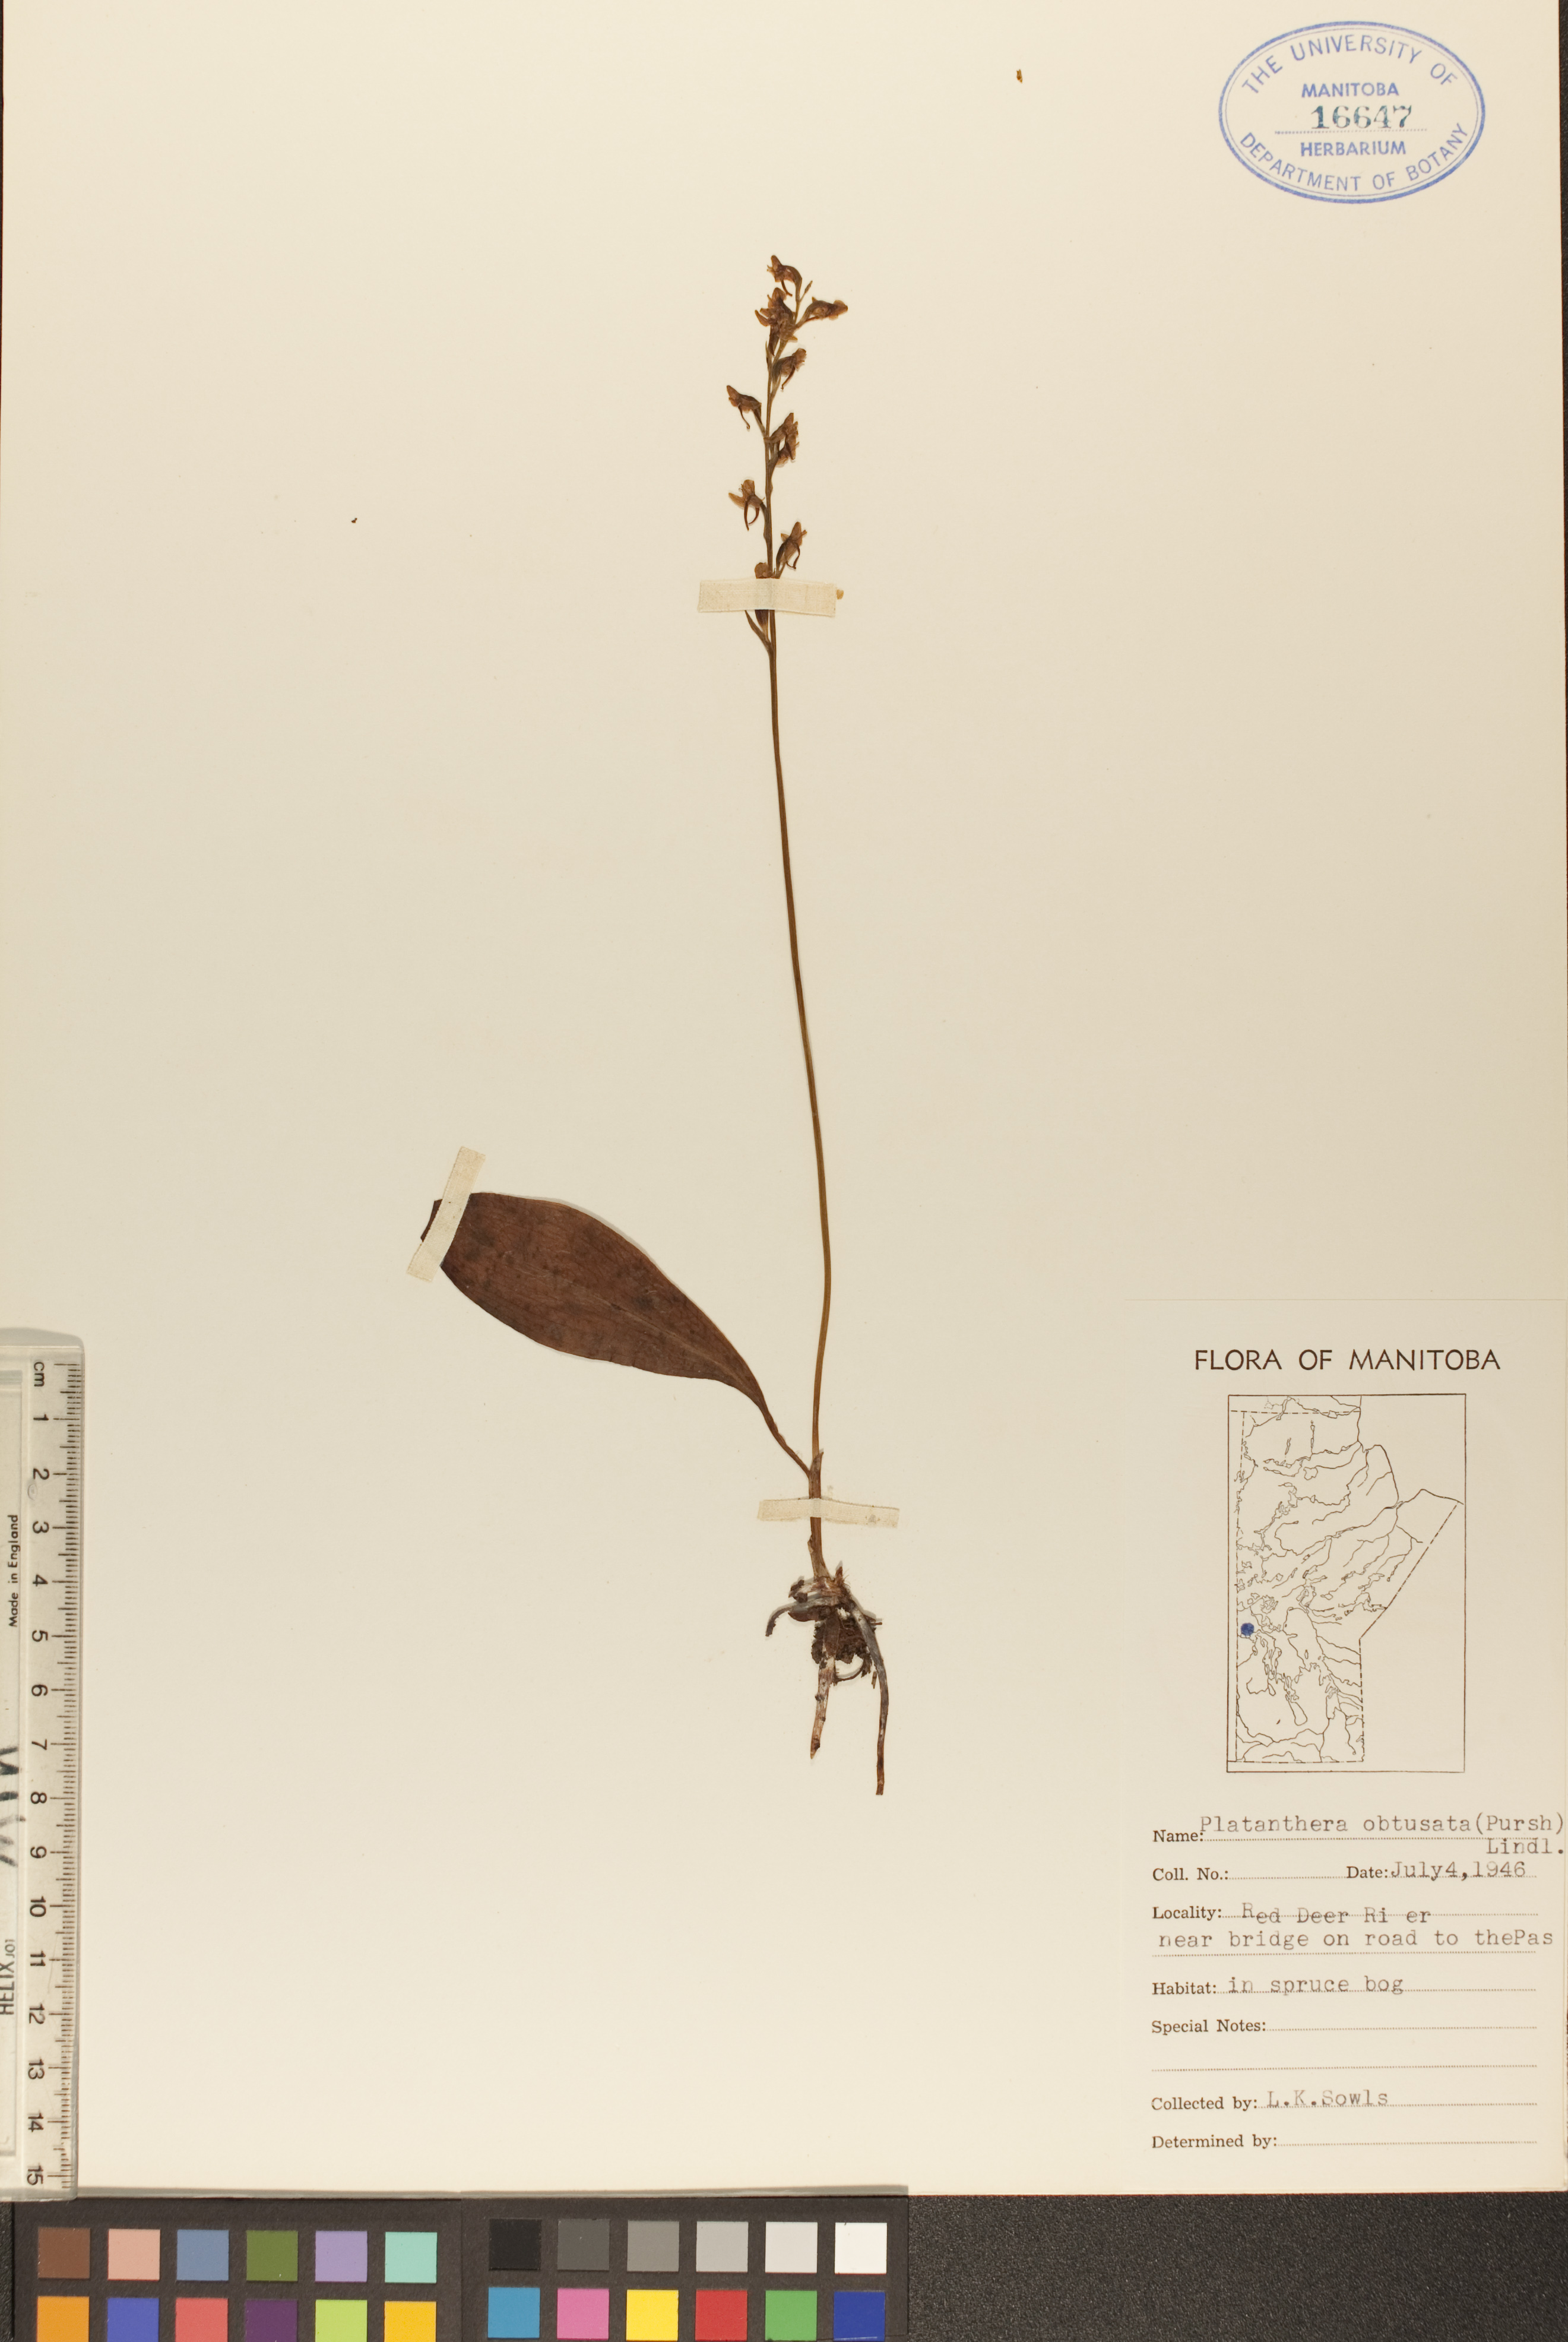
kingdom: Plantae
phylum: Tracheophyta
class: Liliopsida
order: Asparagales
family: Orchidaceae
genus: Platanthera
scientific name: Platanthera obtusata
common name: Blunt bog orchid
